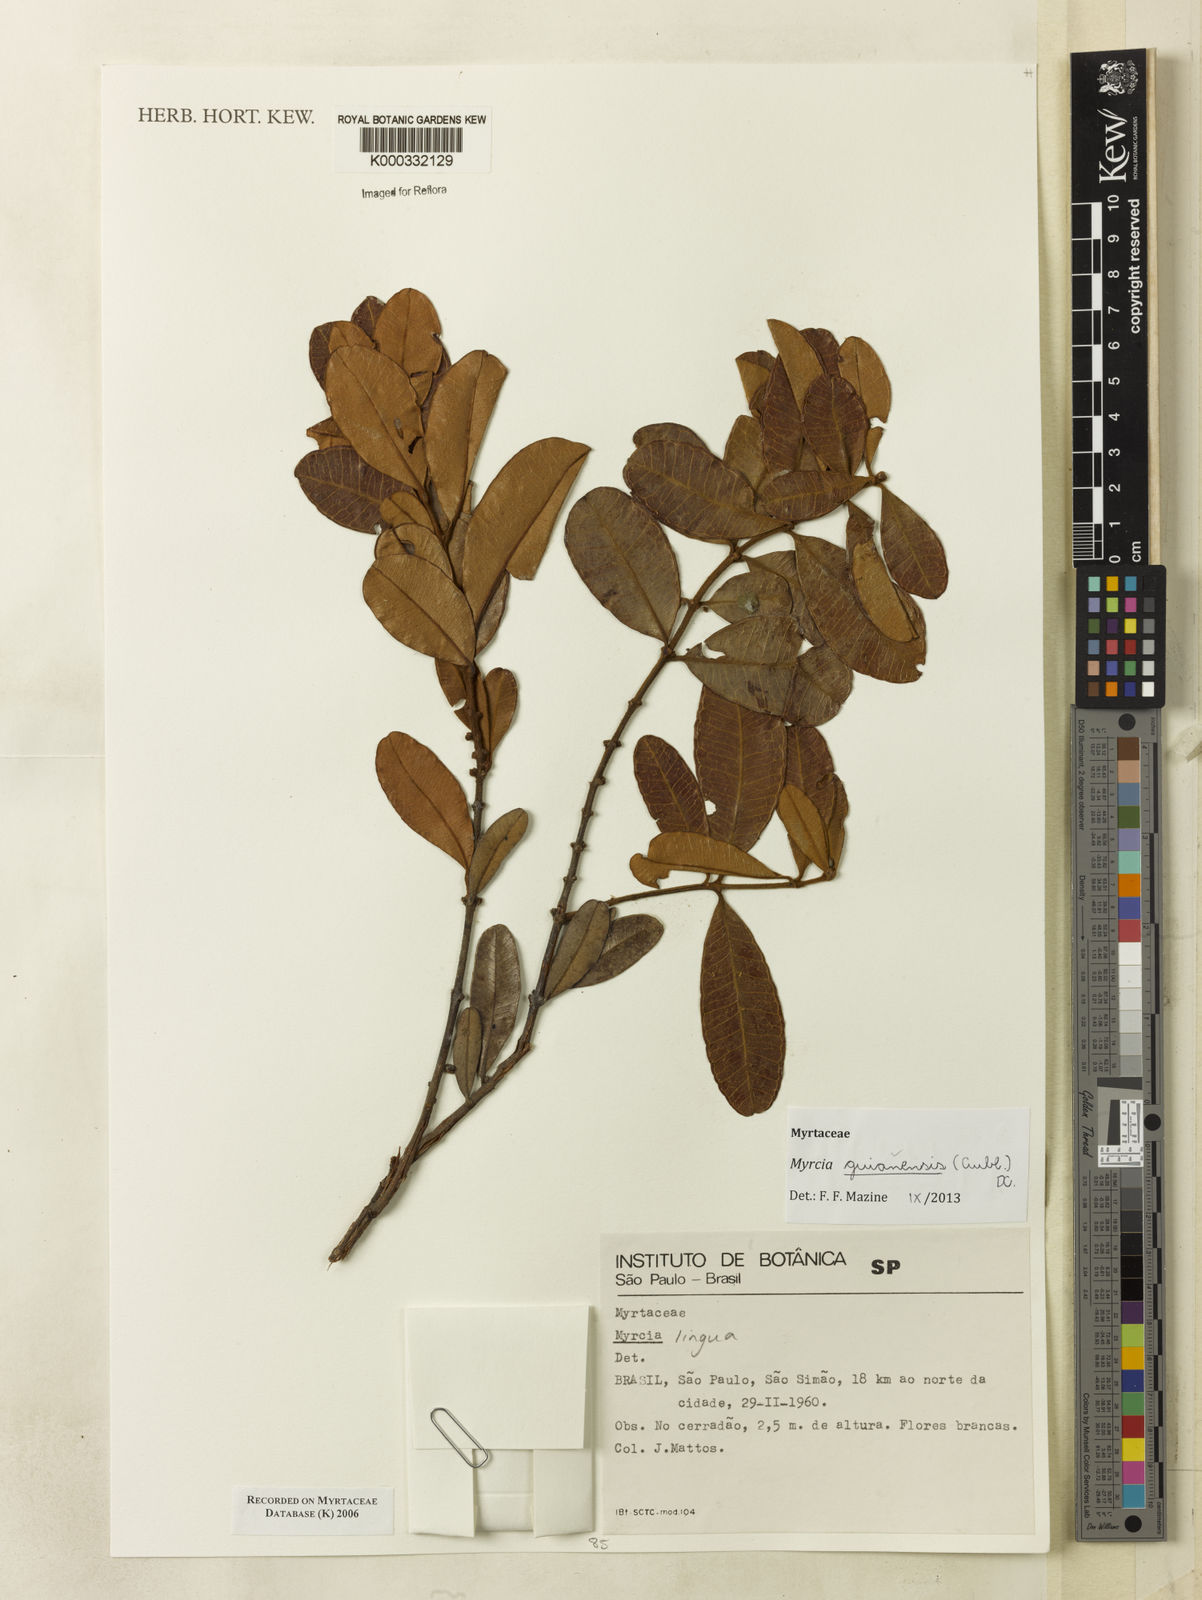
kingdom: Plantae
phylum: Tracheophyta
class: Magnoliopsida
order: Myrtales
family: Myrtaceae
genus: Myrcia
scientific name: Myrcia
